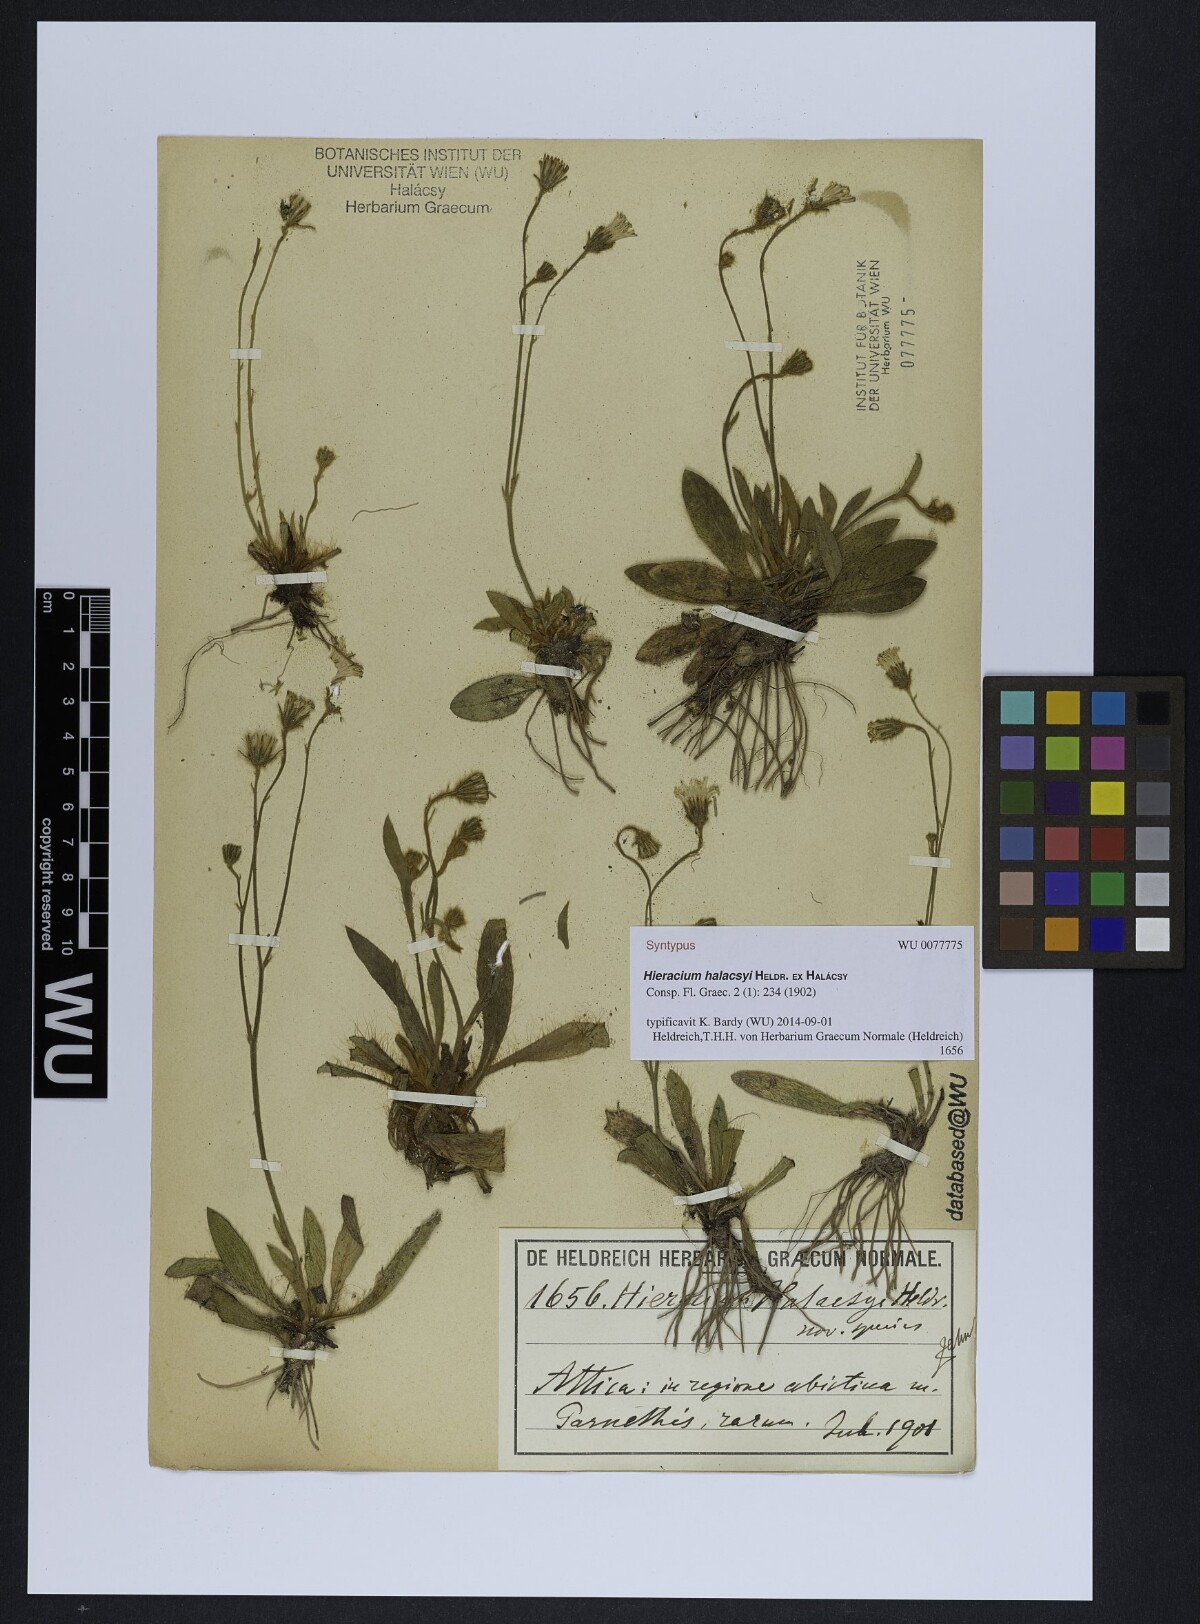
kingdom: Plantae
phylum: Tracheophyta
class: Magnoliopsida
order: Asterales
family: Asteraceae
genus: Pilosella
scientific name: Pilosella halacsyi
